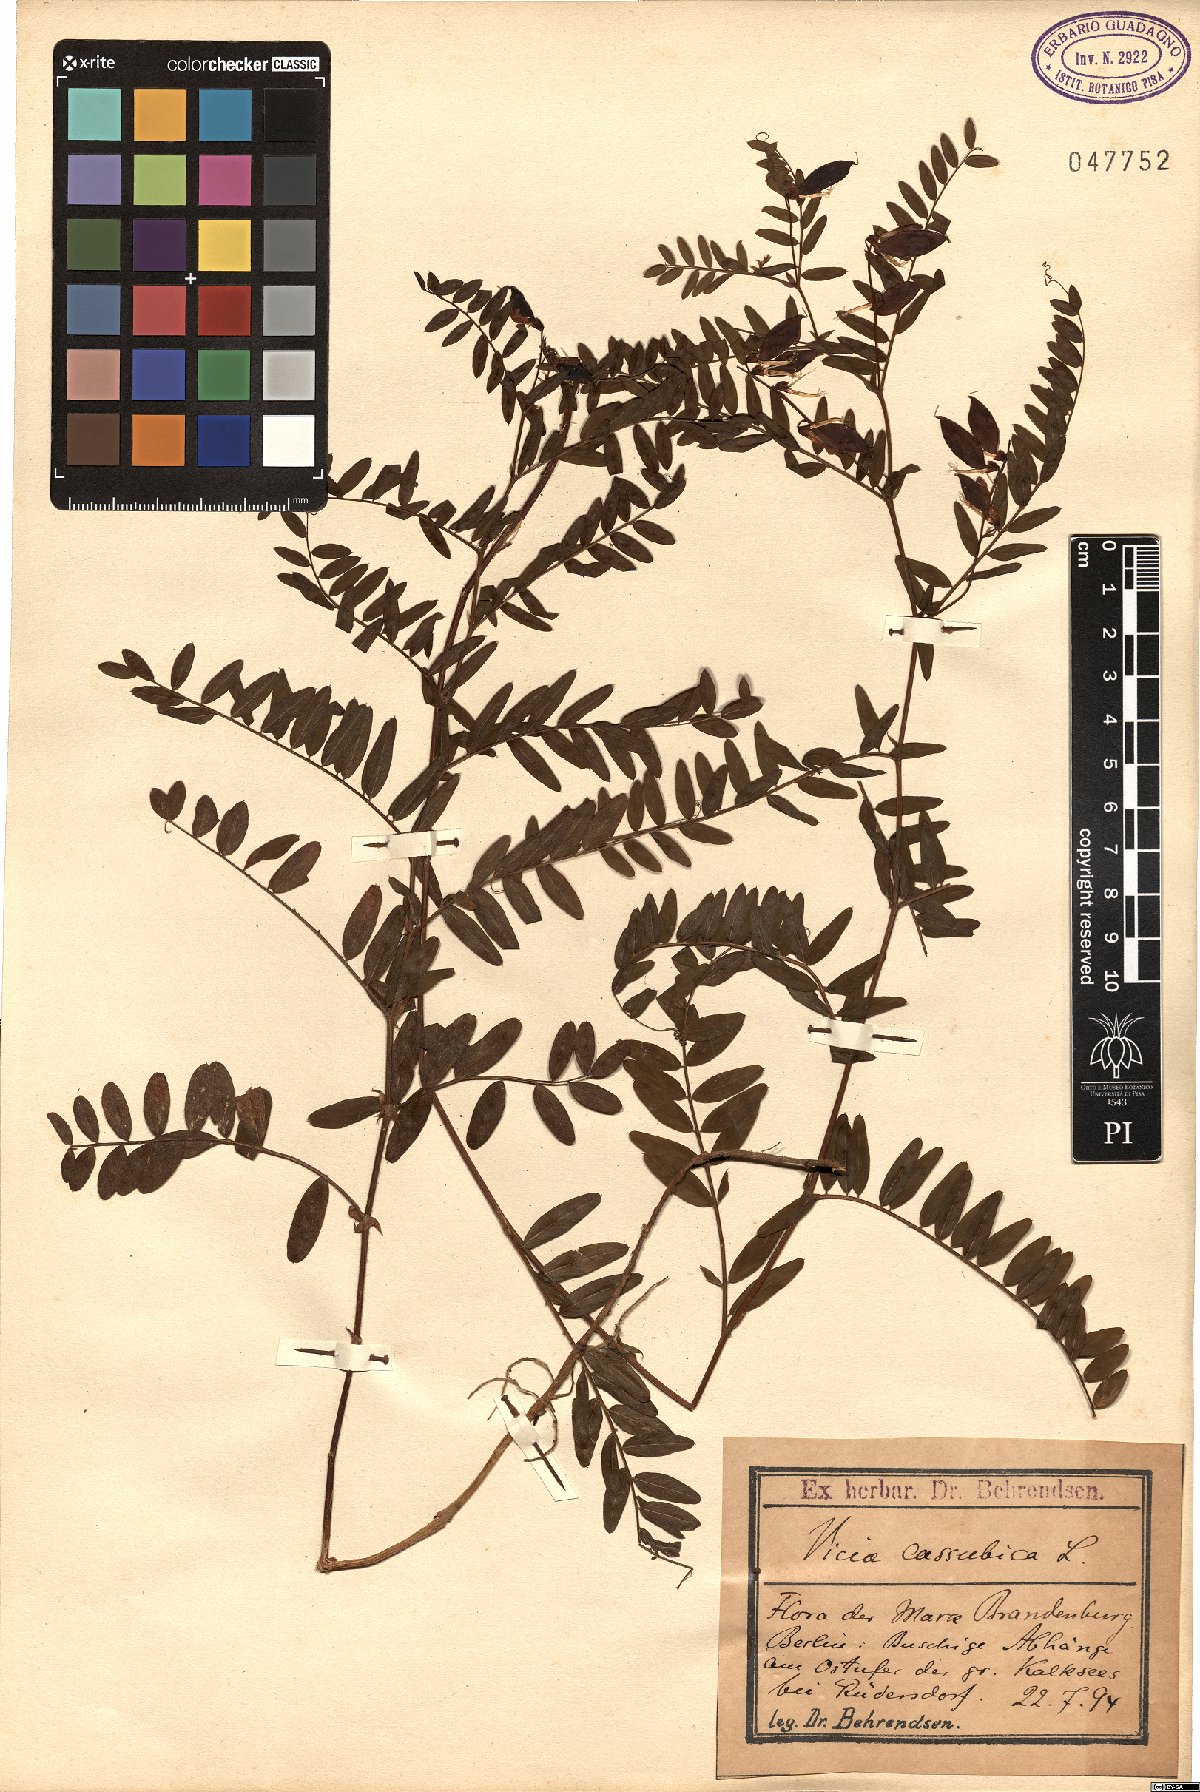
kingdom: Plantae
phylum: Tracheophyta
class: Magnoliopsida
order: Fabales
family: Fabaceae
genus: Vicia
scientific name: Vicia cassubica
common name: Danzig vetch
